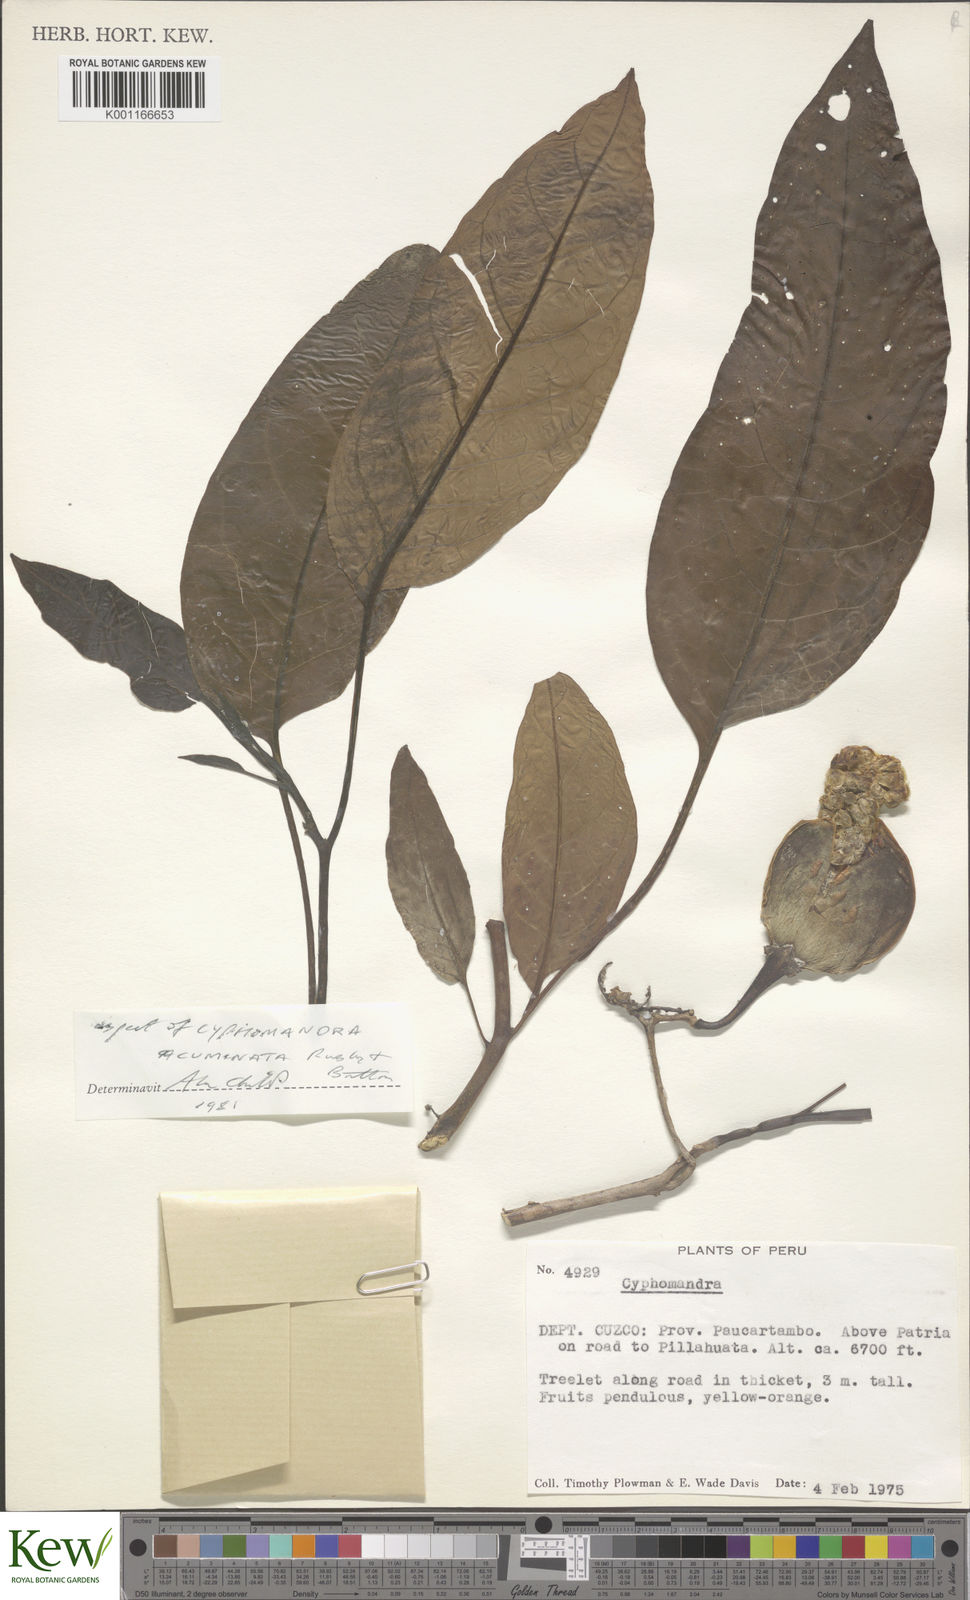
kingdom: Plantae
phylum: Tracheophyta
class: Magnoliopsida
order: Solanales
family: Solanaceae
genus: Solanum
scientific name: Solanum
